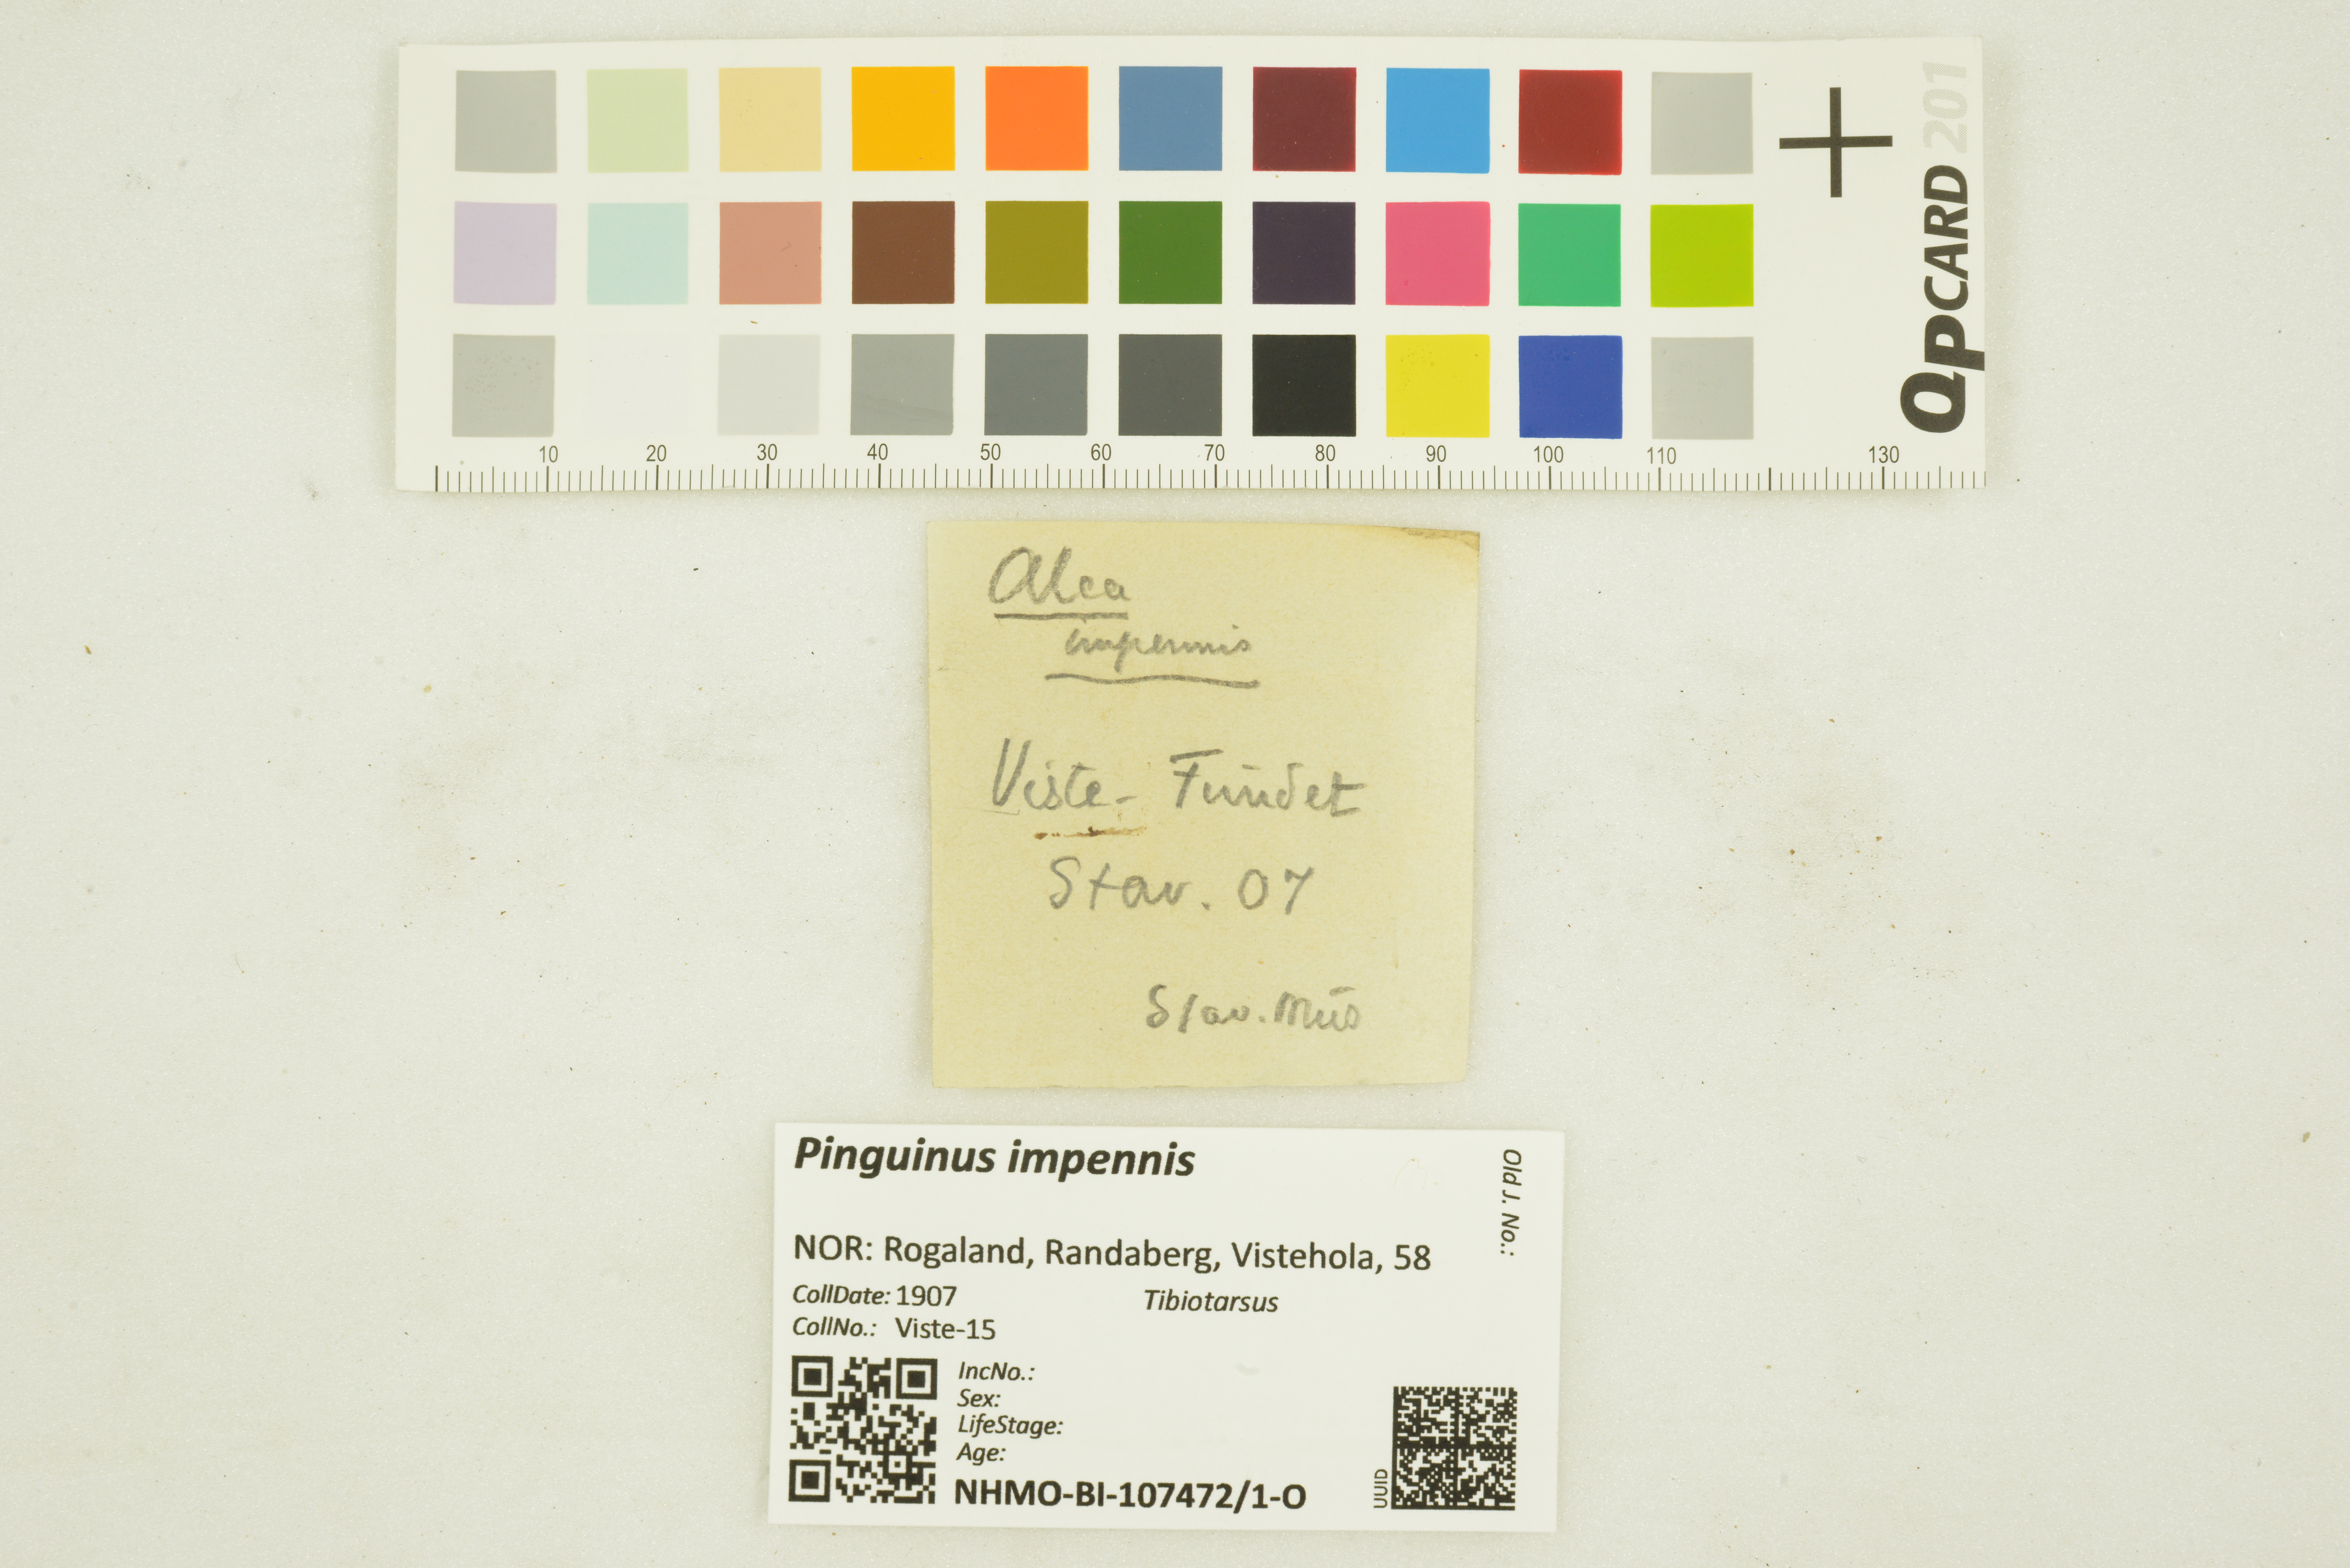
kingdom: Animalia
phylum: Chordata
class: Aves
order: Charadriiformes
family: Alcidae
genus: Pinguinus
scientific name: Pinguinus impennis
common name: Great auk
